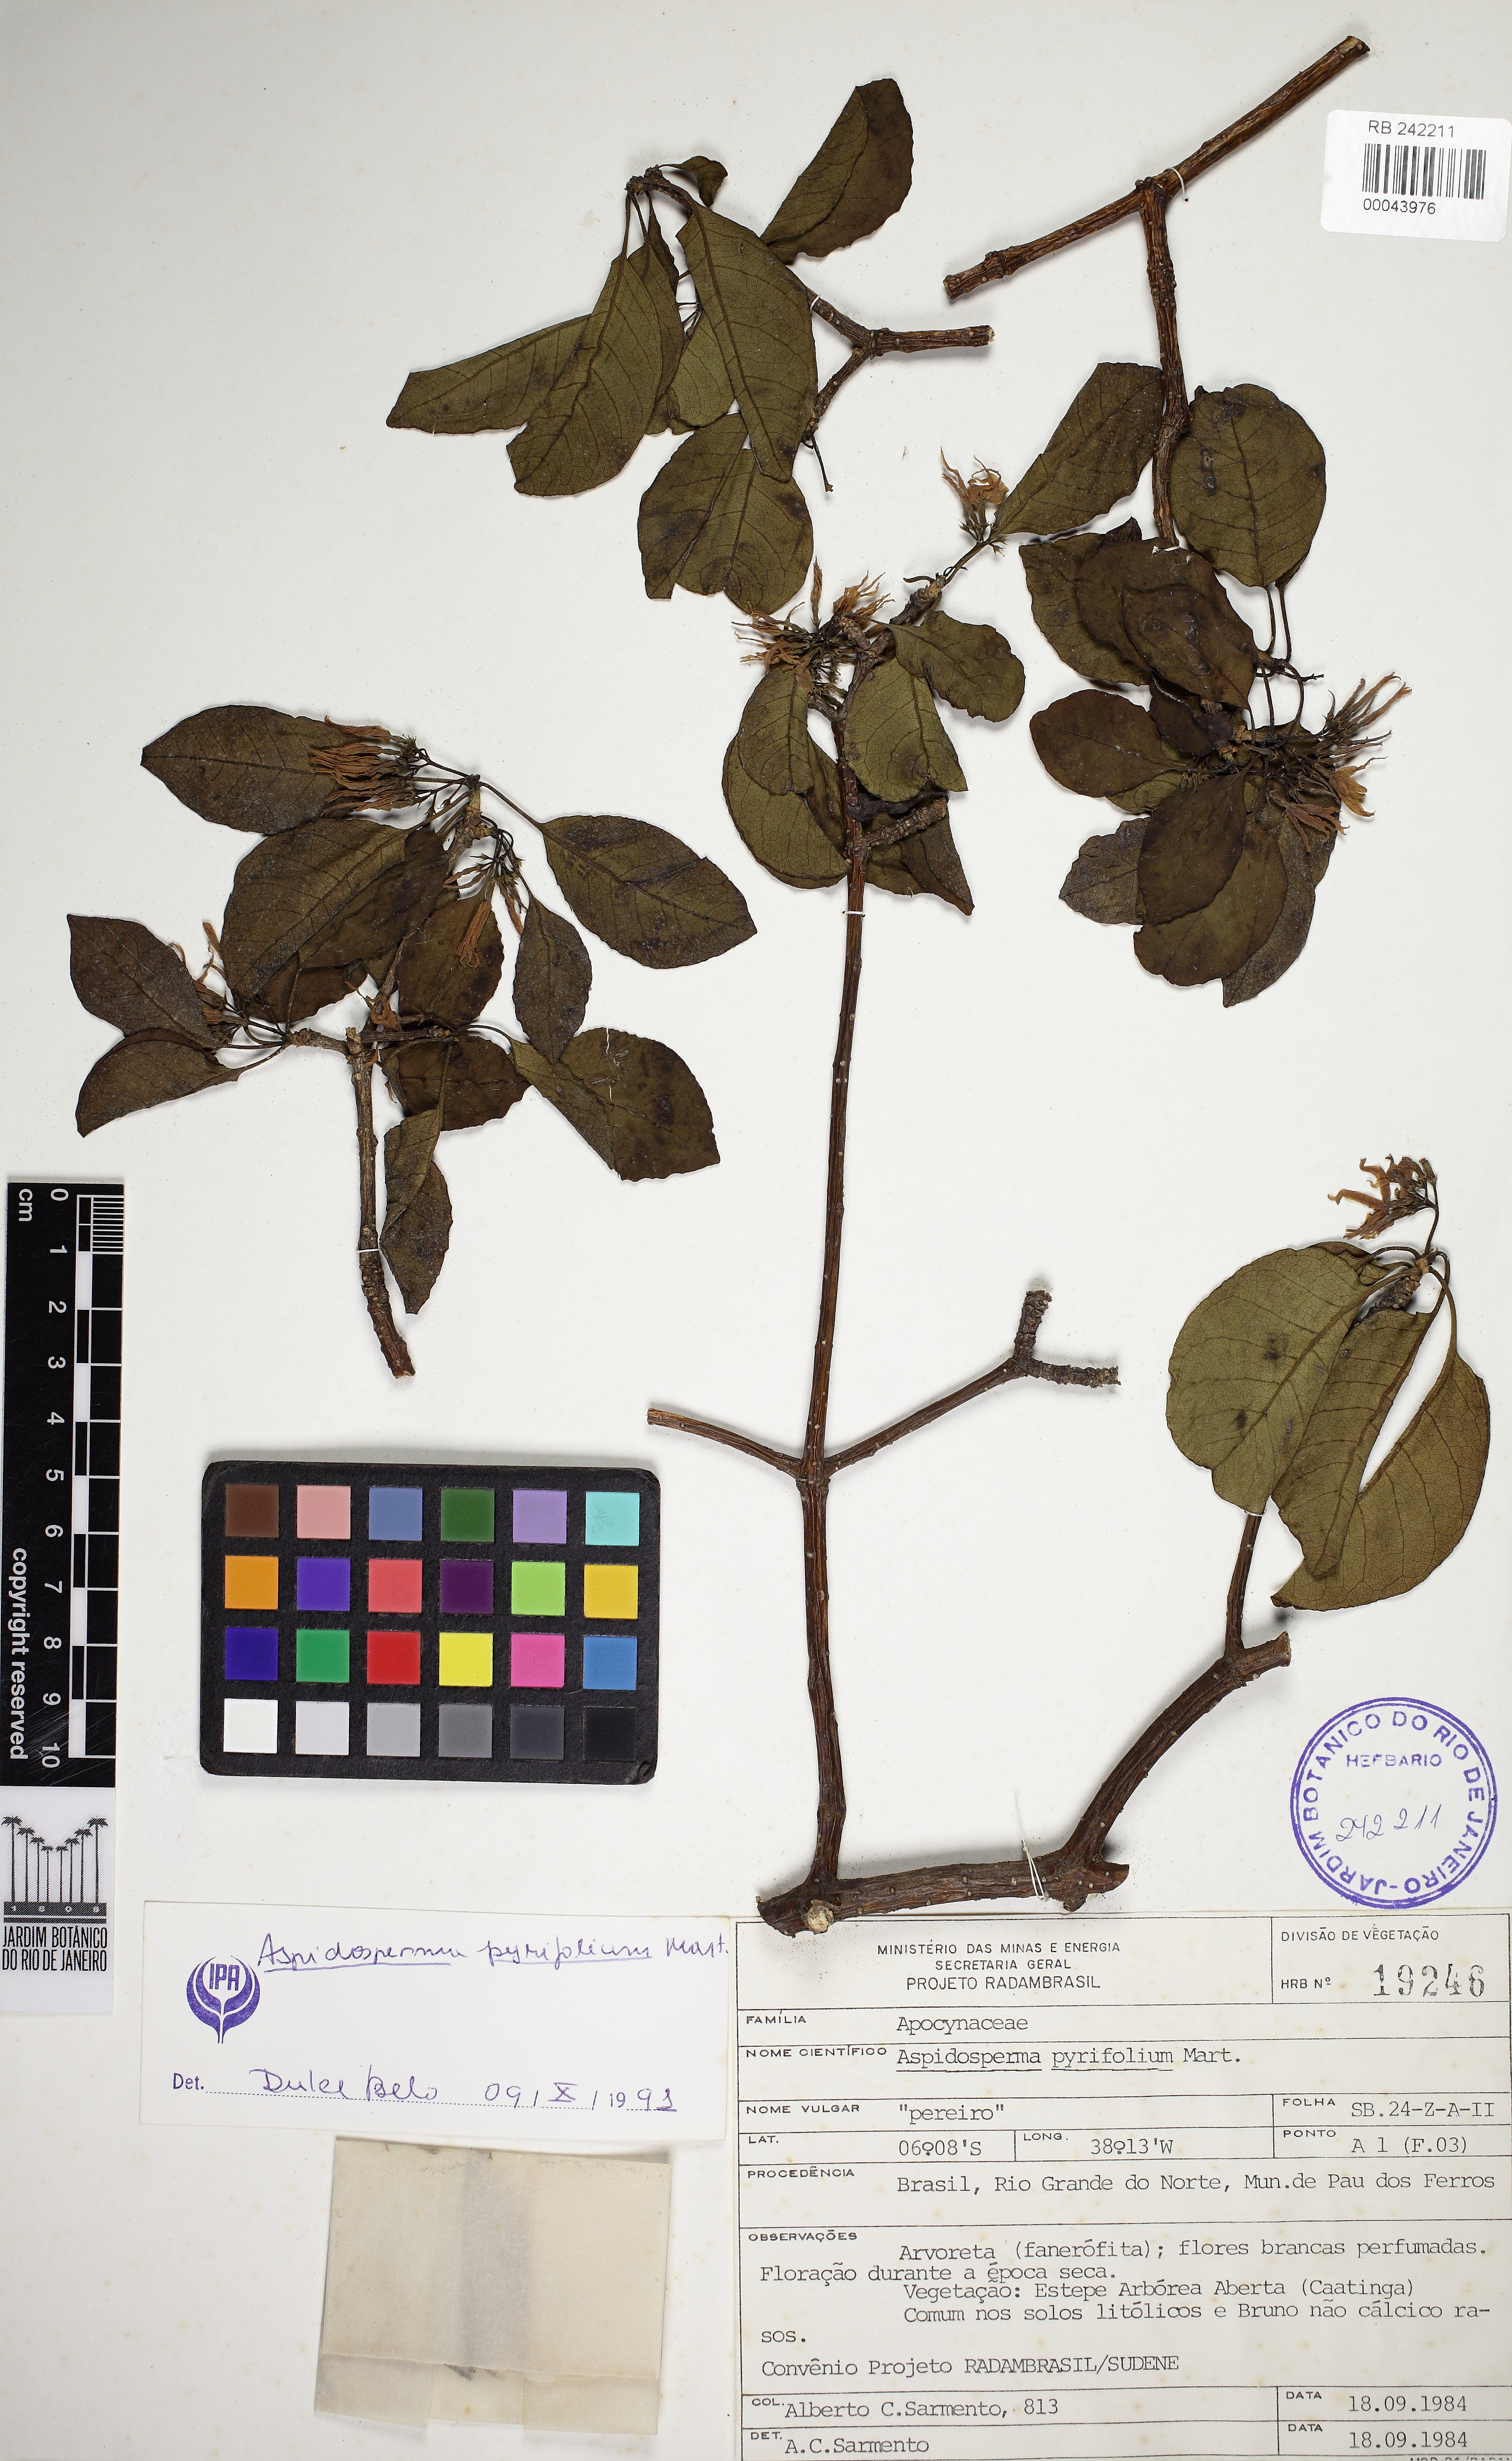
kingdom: Plantae
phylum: Tracheophyta
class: Magnoliopsida
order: Gentianales
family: Apocynaceae
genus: Aspidosperma
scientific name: Aspidosperma pyrifolium
